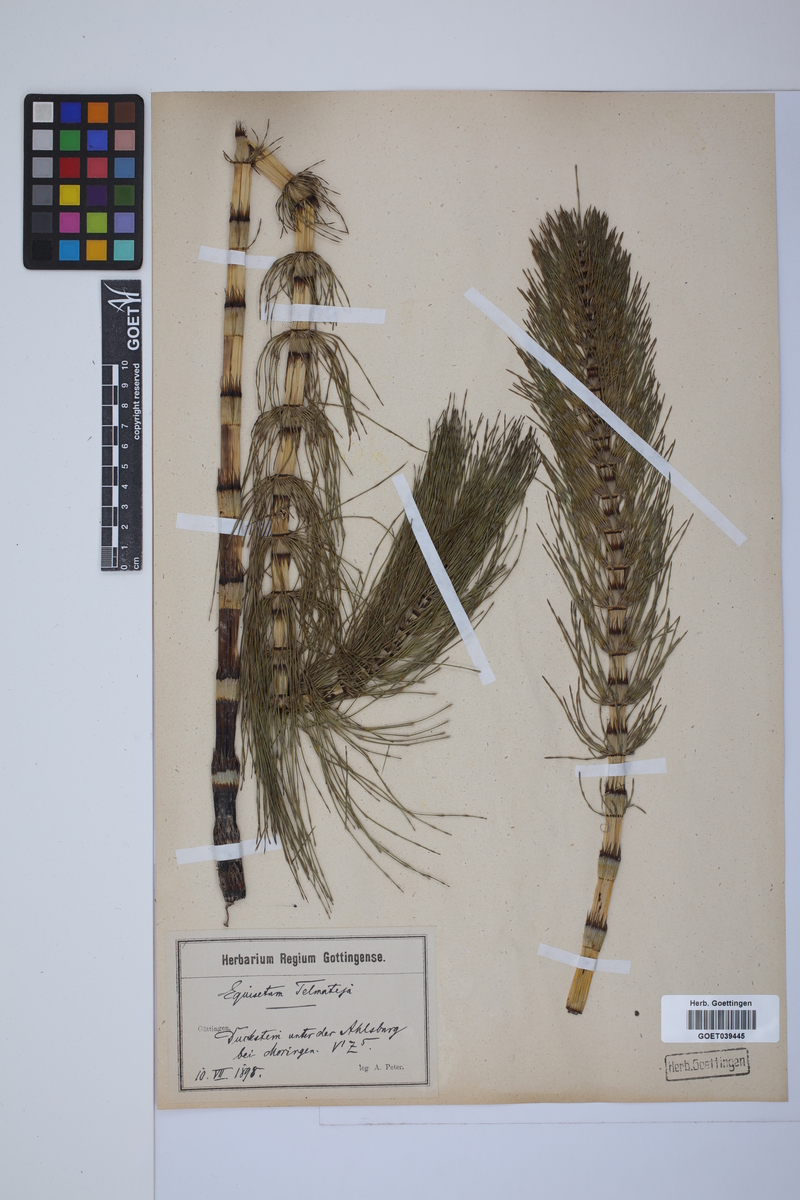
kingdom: Plantae
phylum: Tracheophyta
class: Polypodiopsida
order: Equisetales
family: Equisetaceae
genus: Equisetum
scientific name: Equisetum telmateia
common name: Great horsetail
